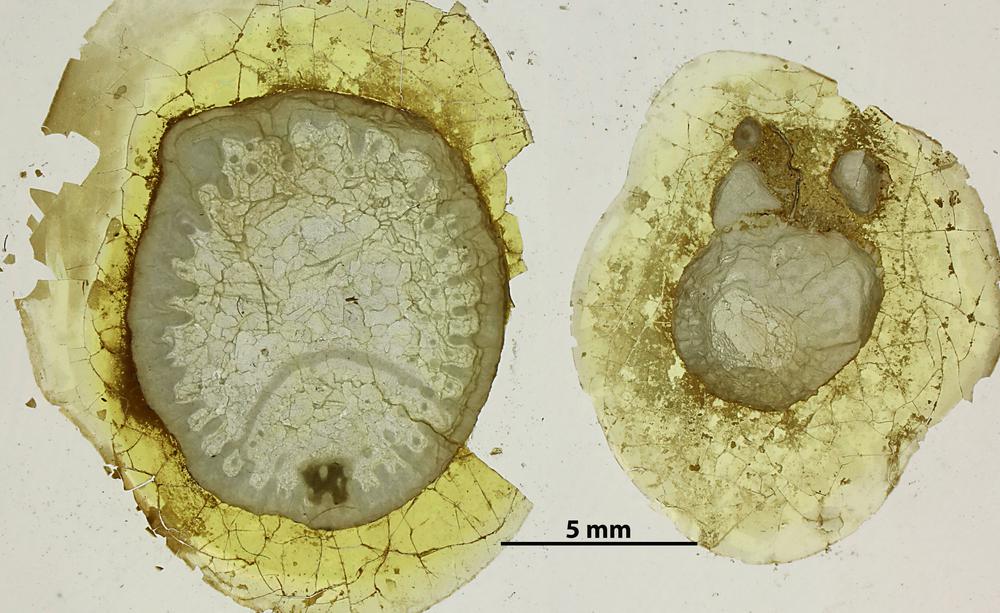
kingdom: Animalia
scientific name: Animalia
